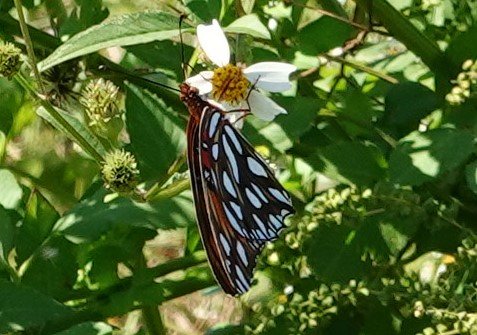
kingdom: Animalia
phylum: Arthropoda
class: Insecta
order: Lepidoptera
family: Nymphalidae
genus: Dione
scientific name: Dione vanillae
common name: Gulf Fritillary
